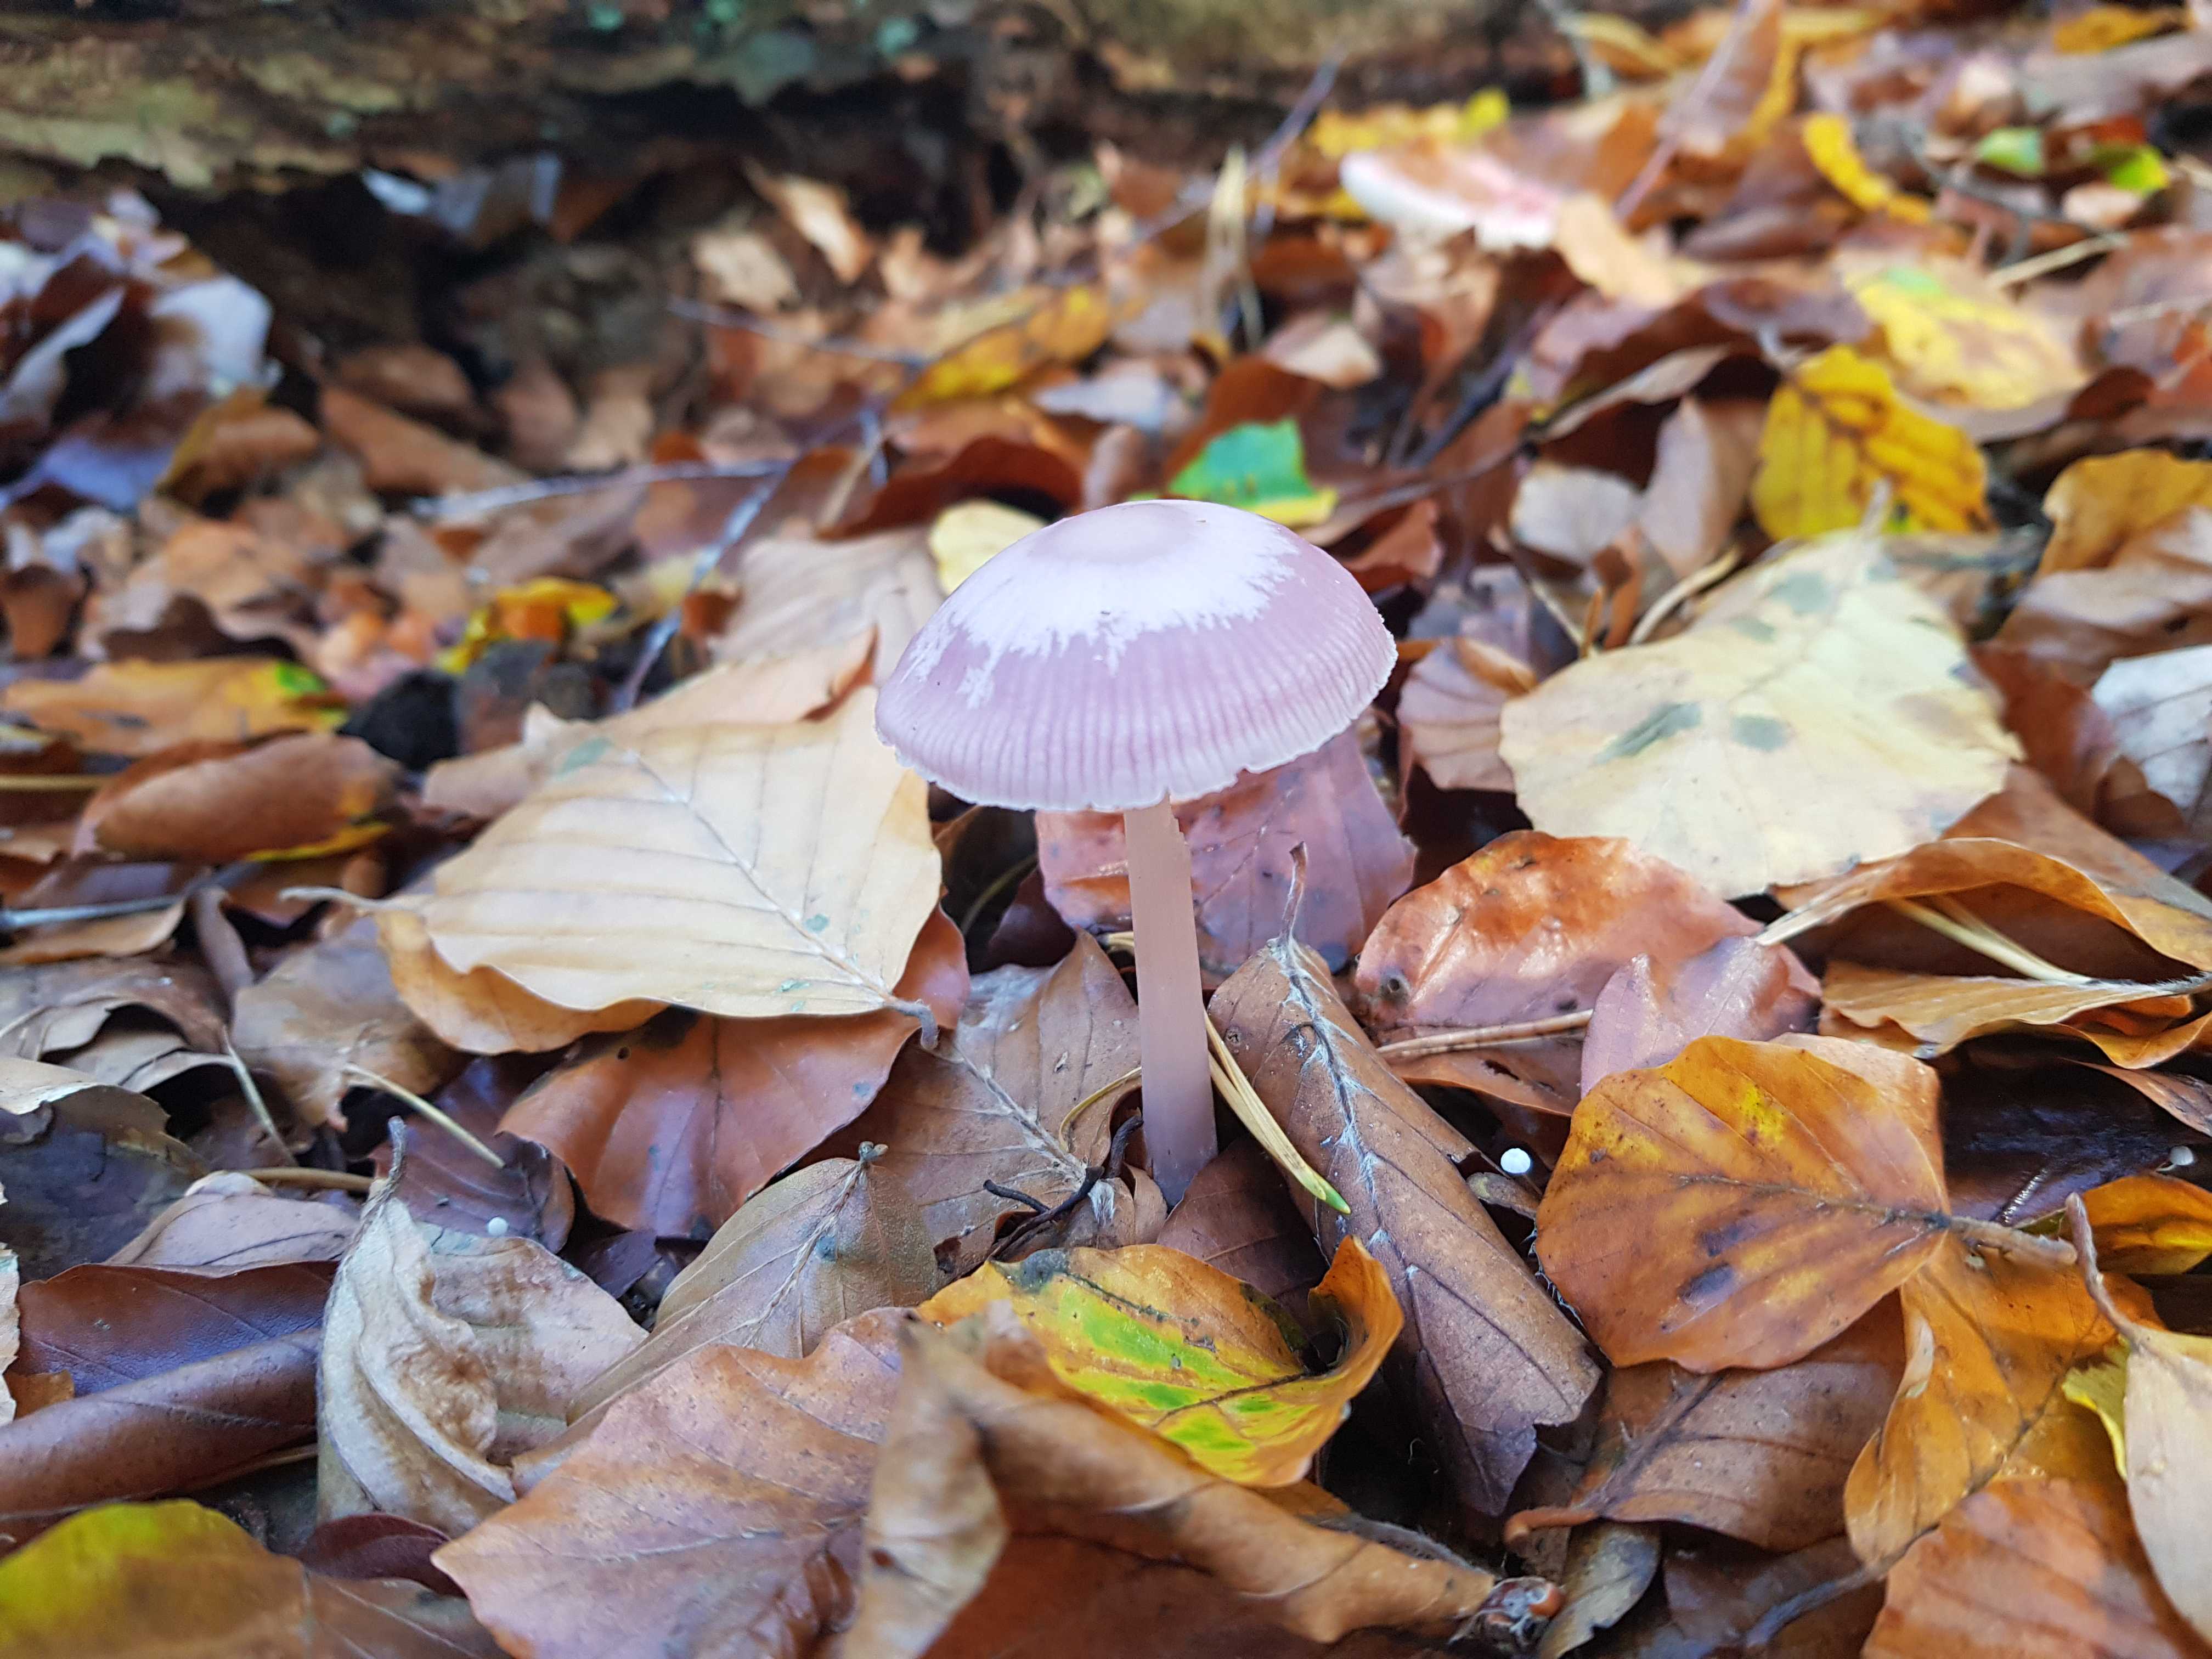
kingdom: Fungi
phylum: Basidiomycota
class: Agaricomycetes
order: Agaricales
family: Mycenaceae
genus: Mycena
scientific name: Mycena rosea
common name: rosa huesvamp
